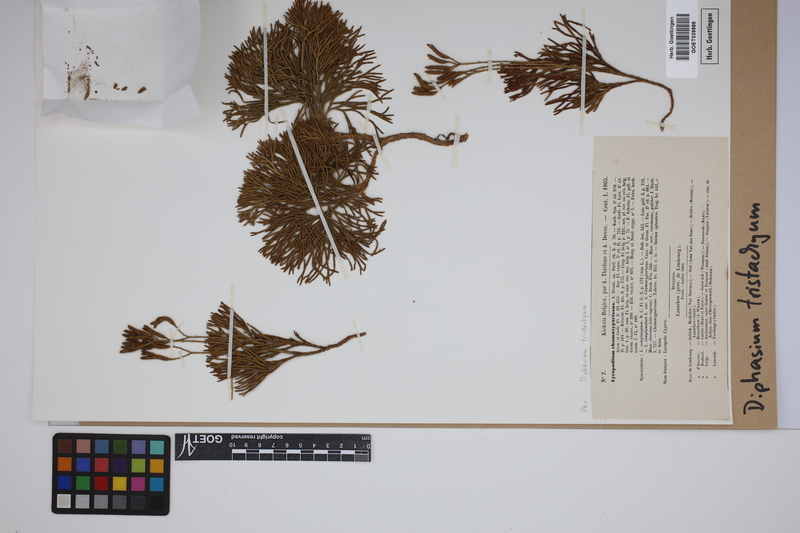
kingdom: Plantae
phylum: Tracheophyta
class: Lycopodiopsida
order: Lycopodiales
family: Lycopodiaceae
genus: Diphasiastrum
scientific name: Diphasiastrum tristachyum
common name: Blue ground-cedar
